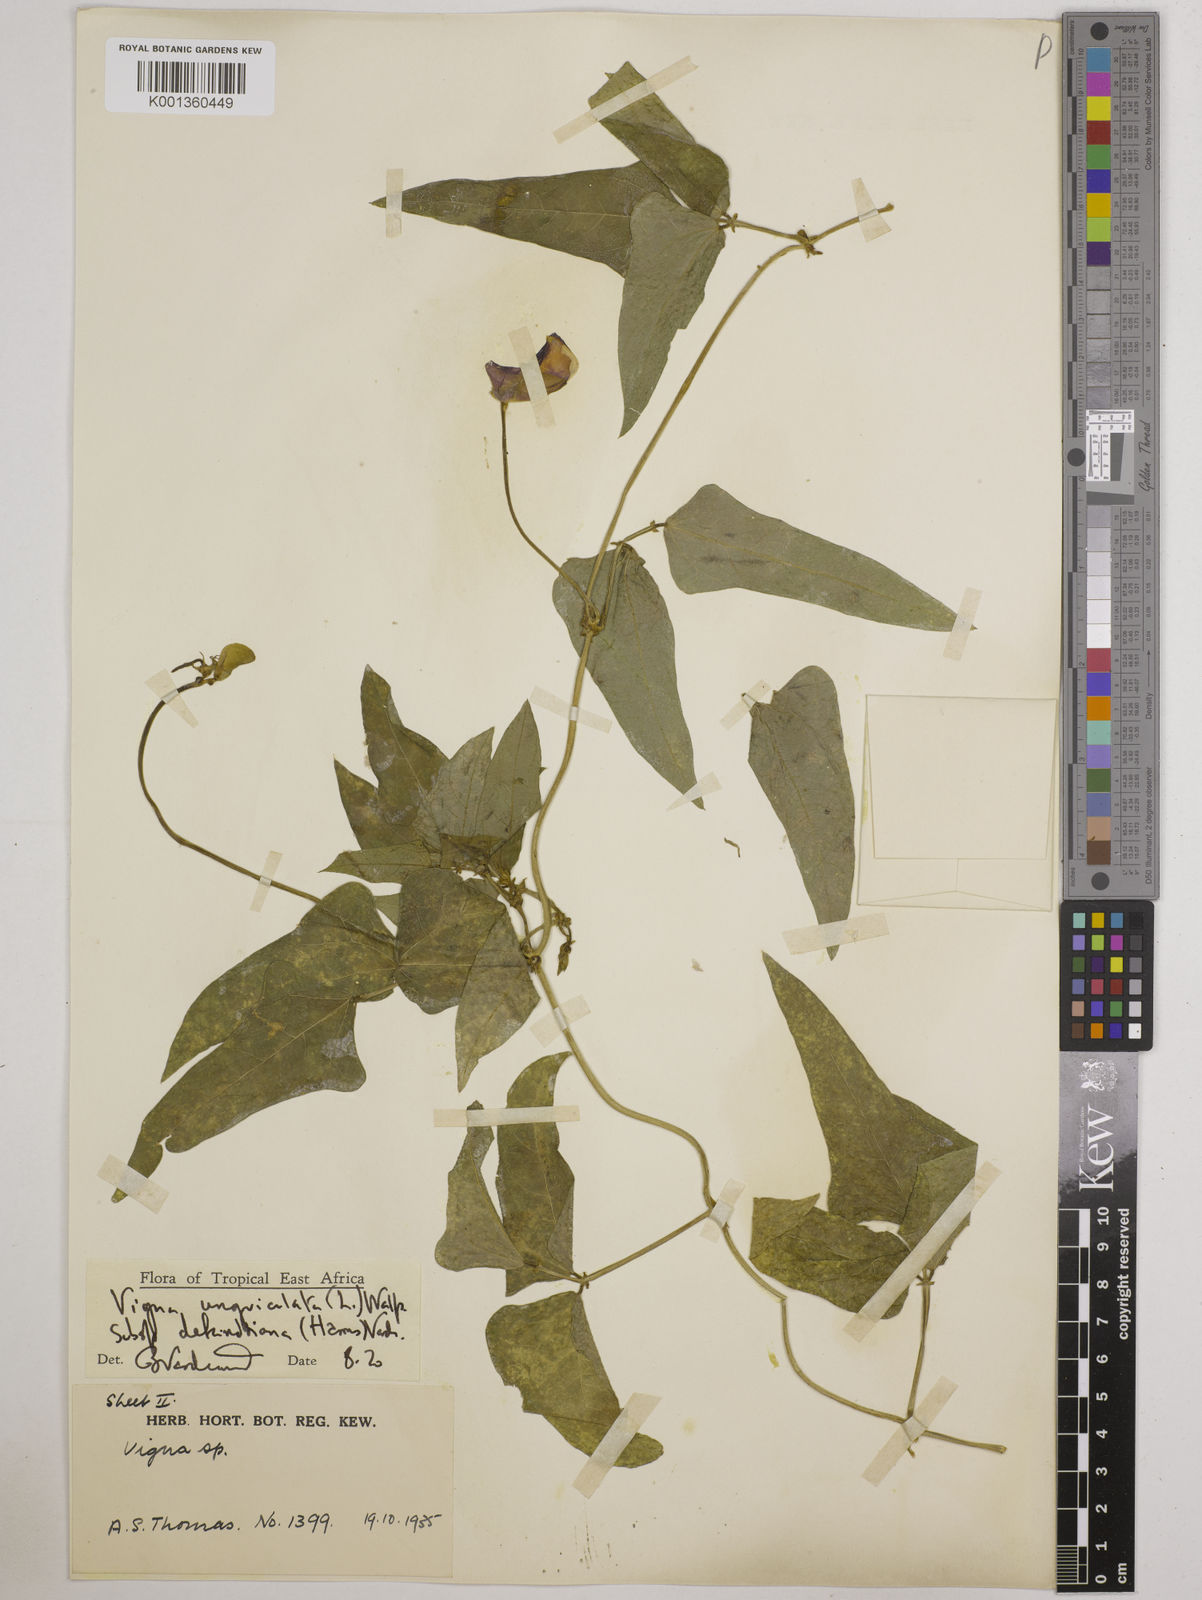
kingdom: Plantae
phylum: Tracheophyta
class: Magnoliopsida
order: Fabales
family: Fabaceae
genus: Vigna
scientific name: Vigna unguiculata
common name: Cowpea
